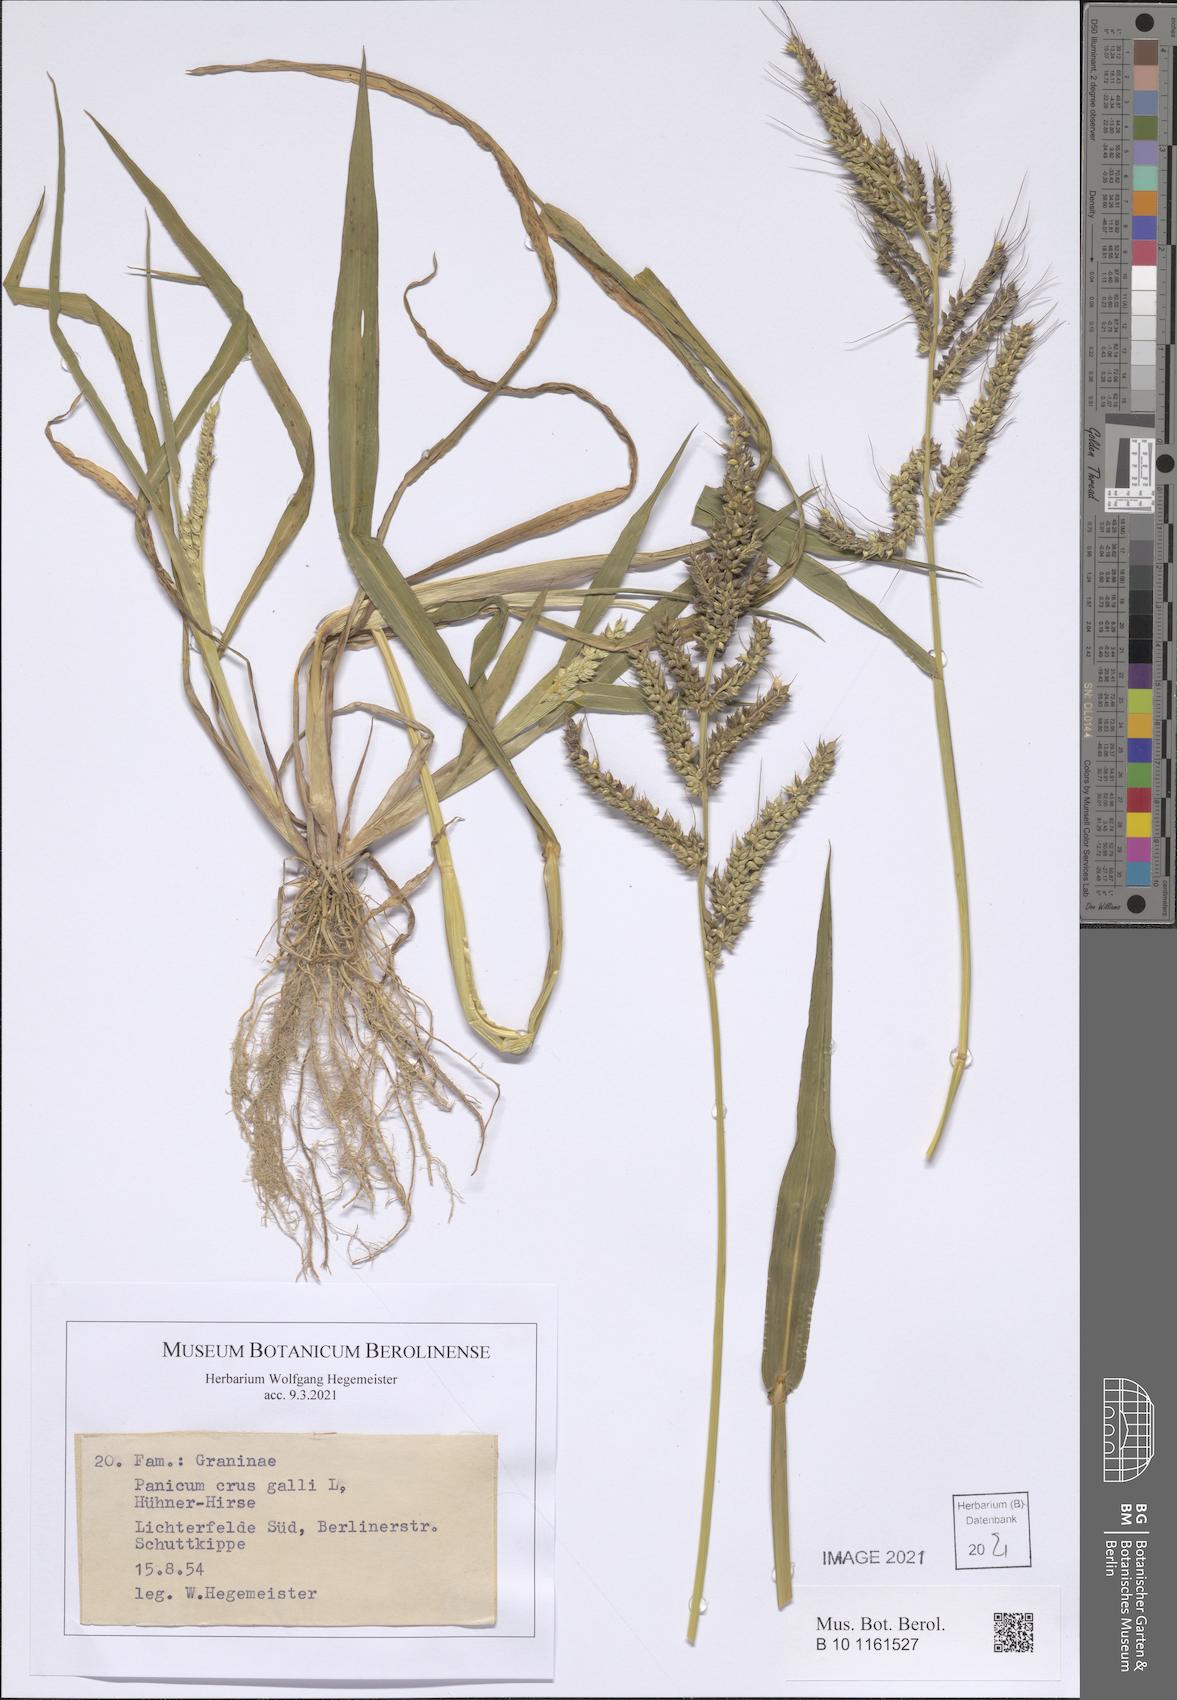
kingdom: Plantae
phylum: Tracheophyta
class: Liliopsida
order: Poales
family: Poaceae
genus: Echinochloa
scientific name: Echinochloa crus-galli
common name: Cockspur
